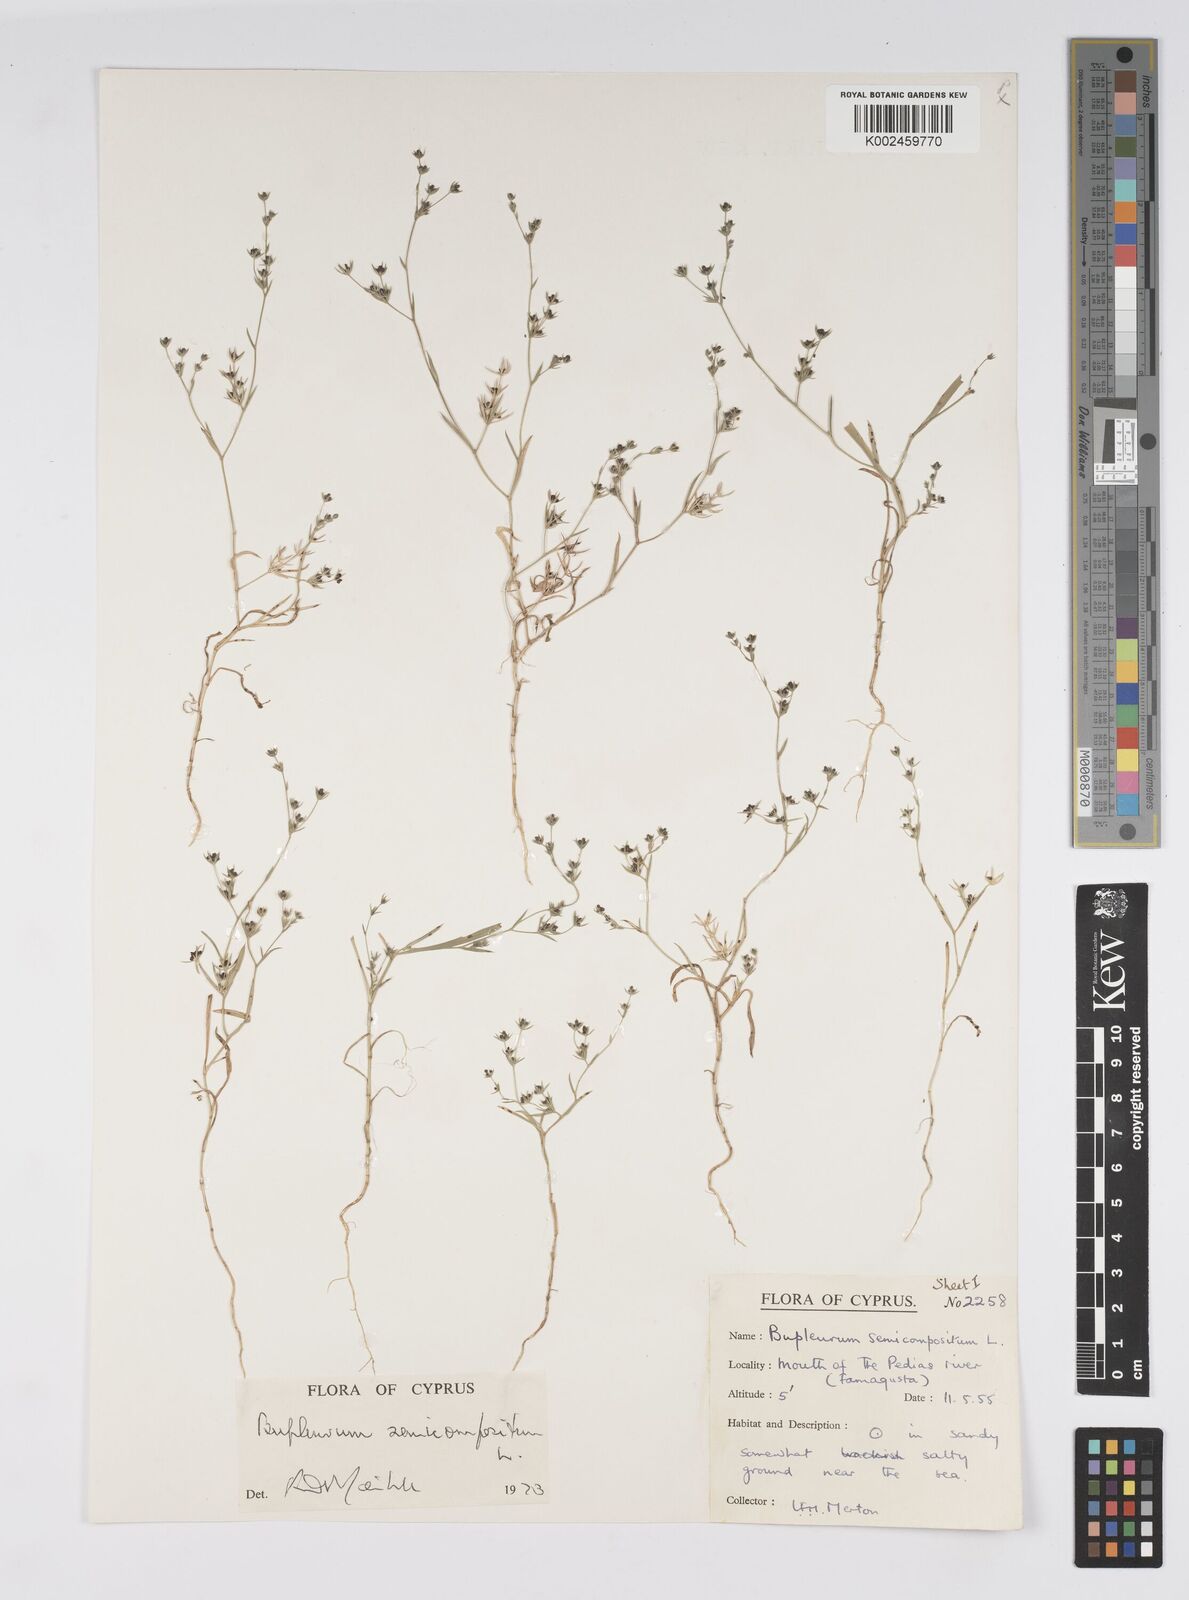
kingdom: Plantae
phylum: Tracheophyta
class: Magnoliopsida
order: Apiales
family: Apiaceae
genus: Bupleurum
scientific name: Bupleurum semicompositum
